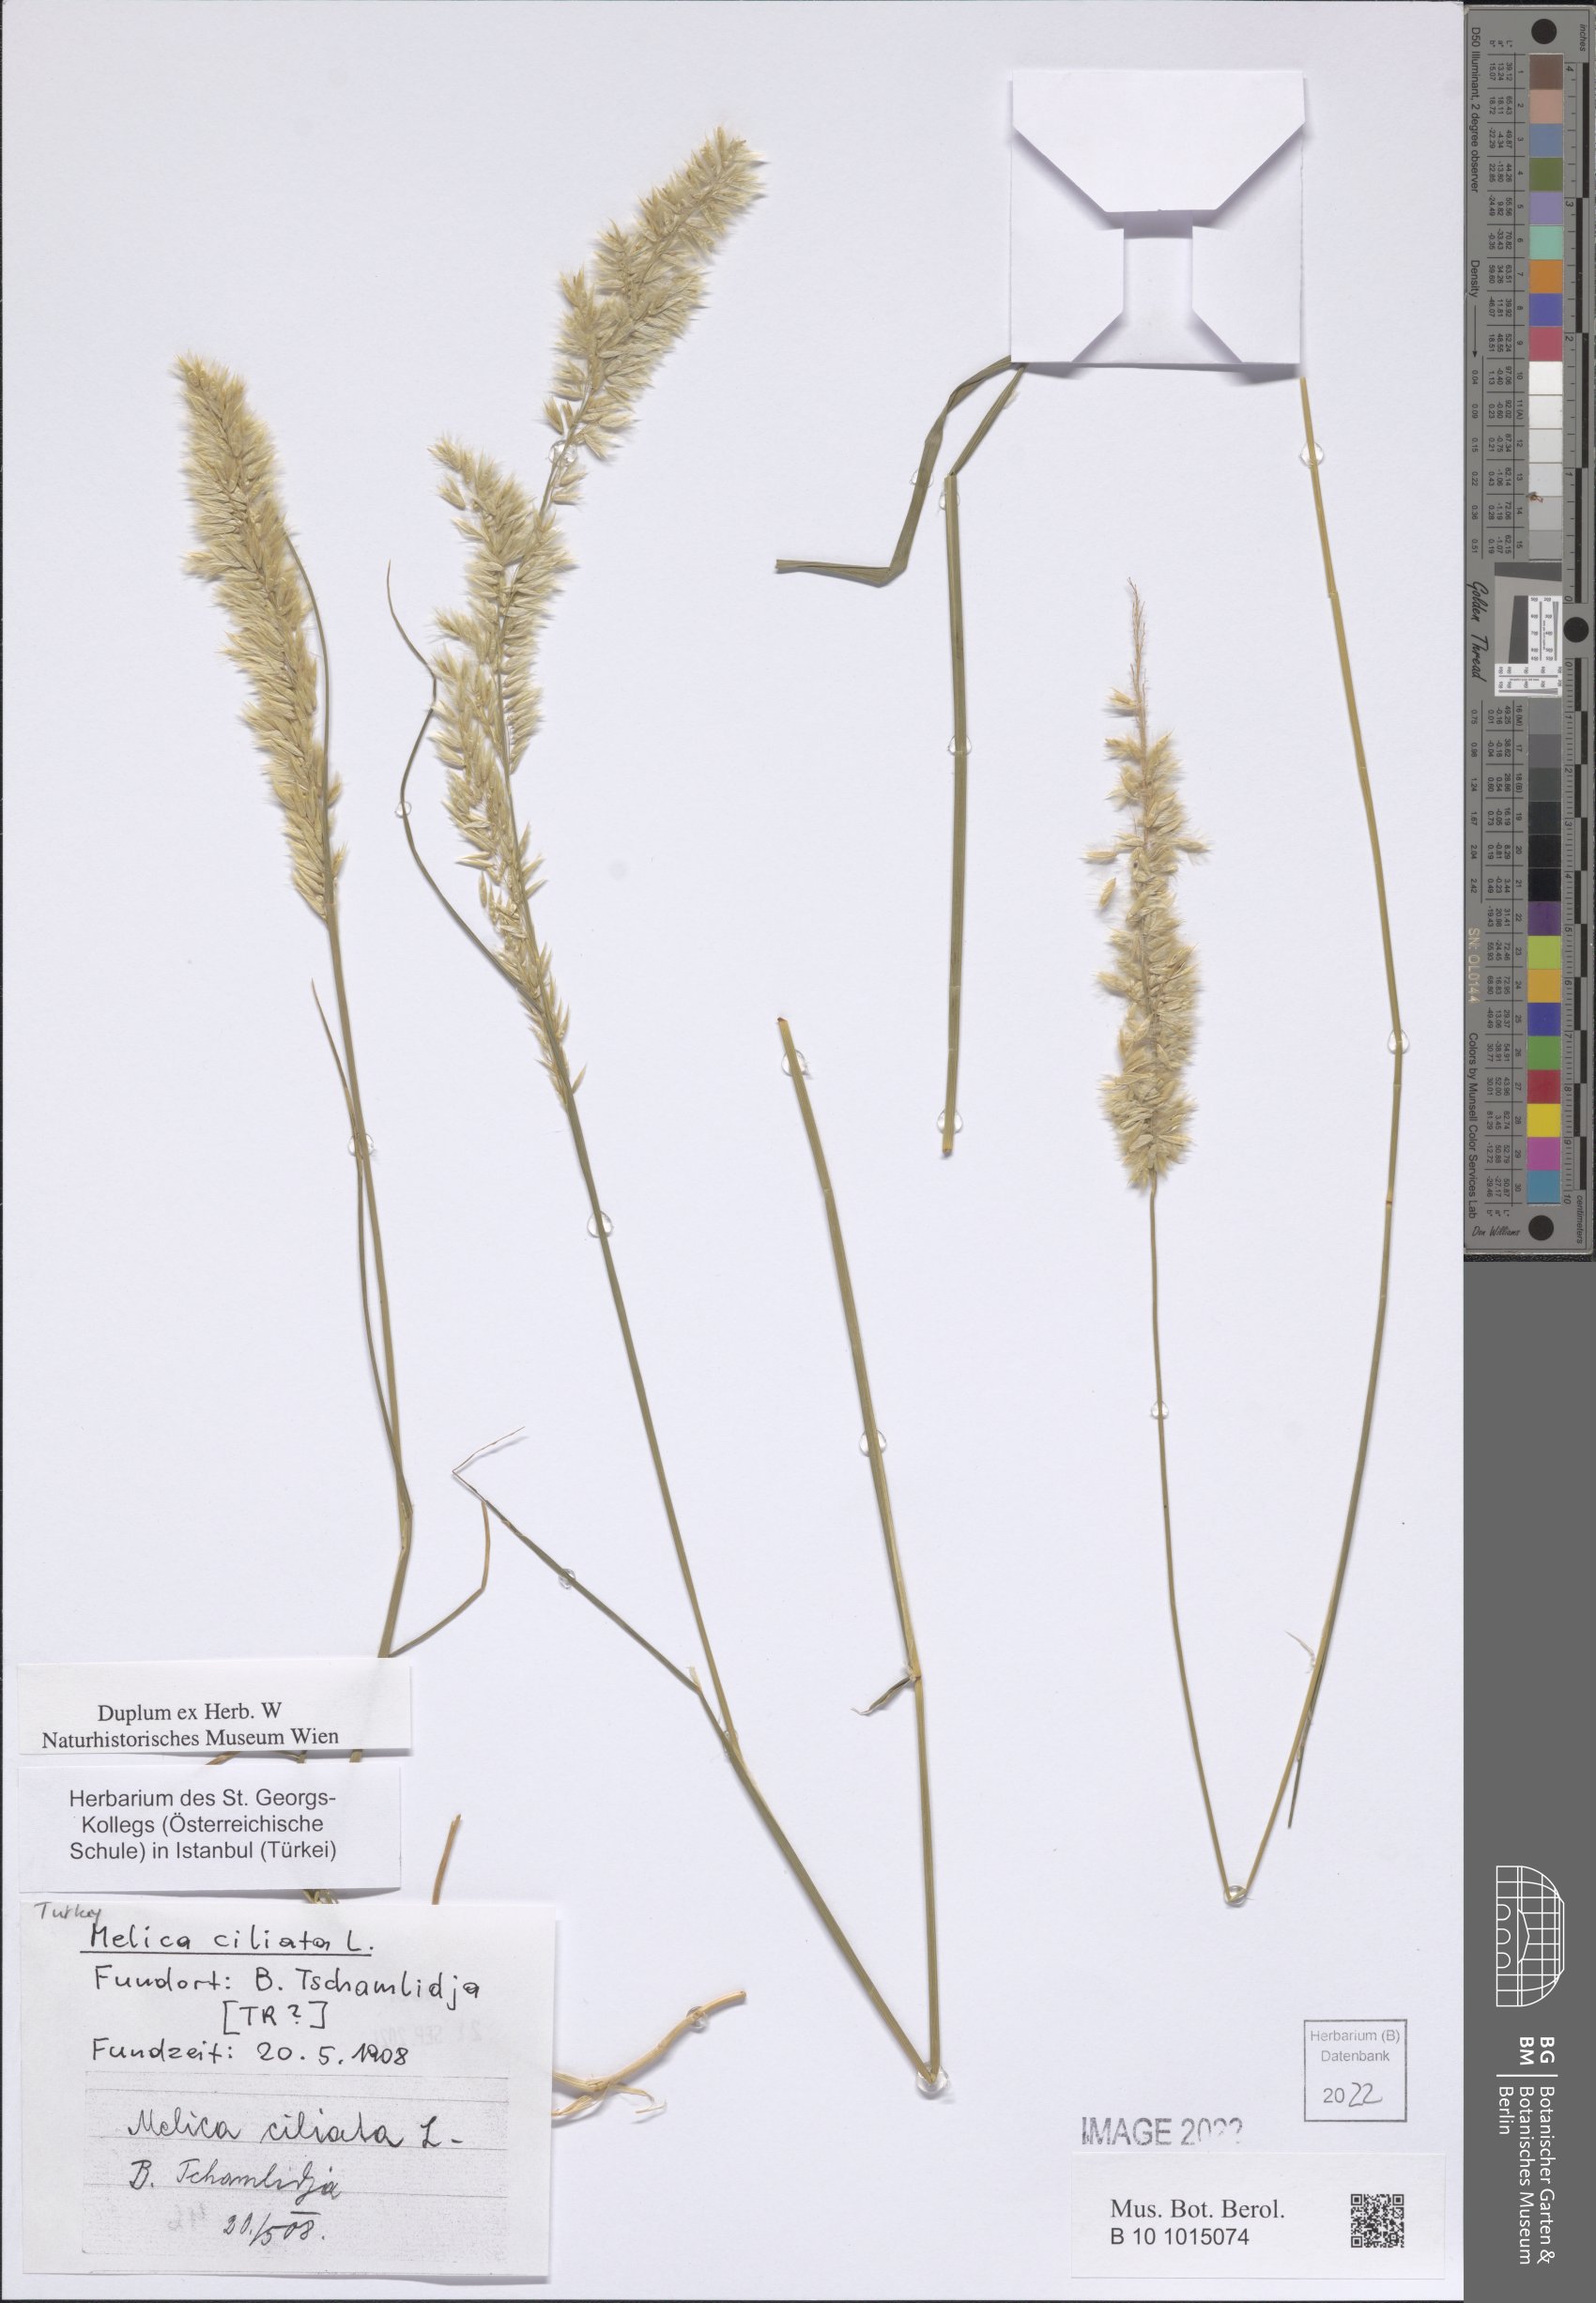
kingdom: Plantae
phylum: Tracheophyta
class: Liliopsida
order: Poales
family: Poaceae
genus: Melica
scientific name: Melica ciliata
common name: Hairy melicgrass
